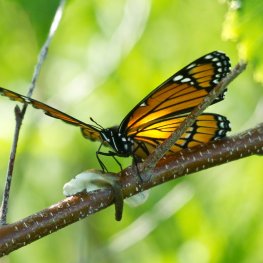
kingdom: Animalia
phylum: Arthropoda
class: Insecta
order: Lepidoptera
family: Nymphalidae
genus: Limenitis
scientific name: Limenitis archippus
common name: Viceroy
